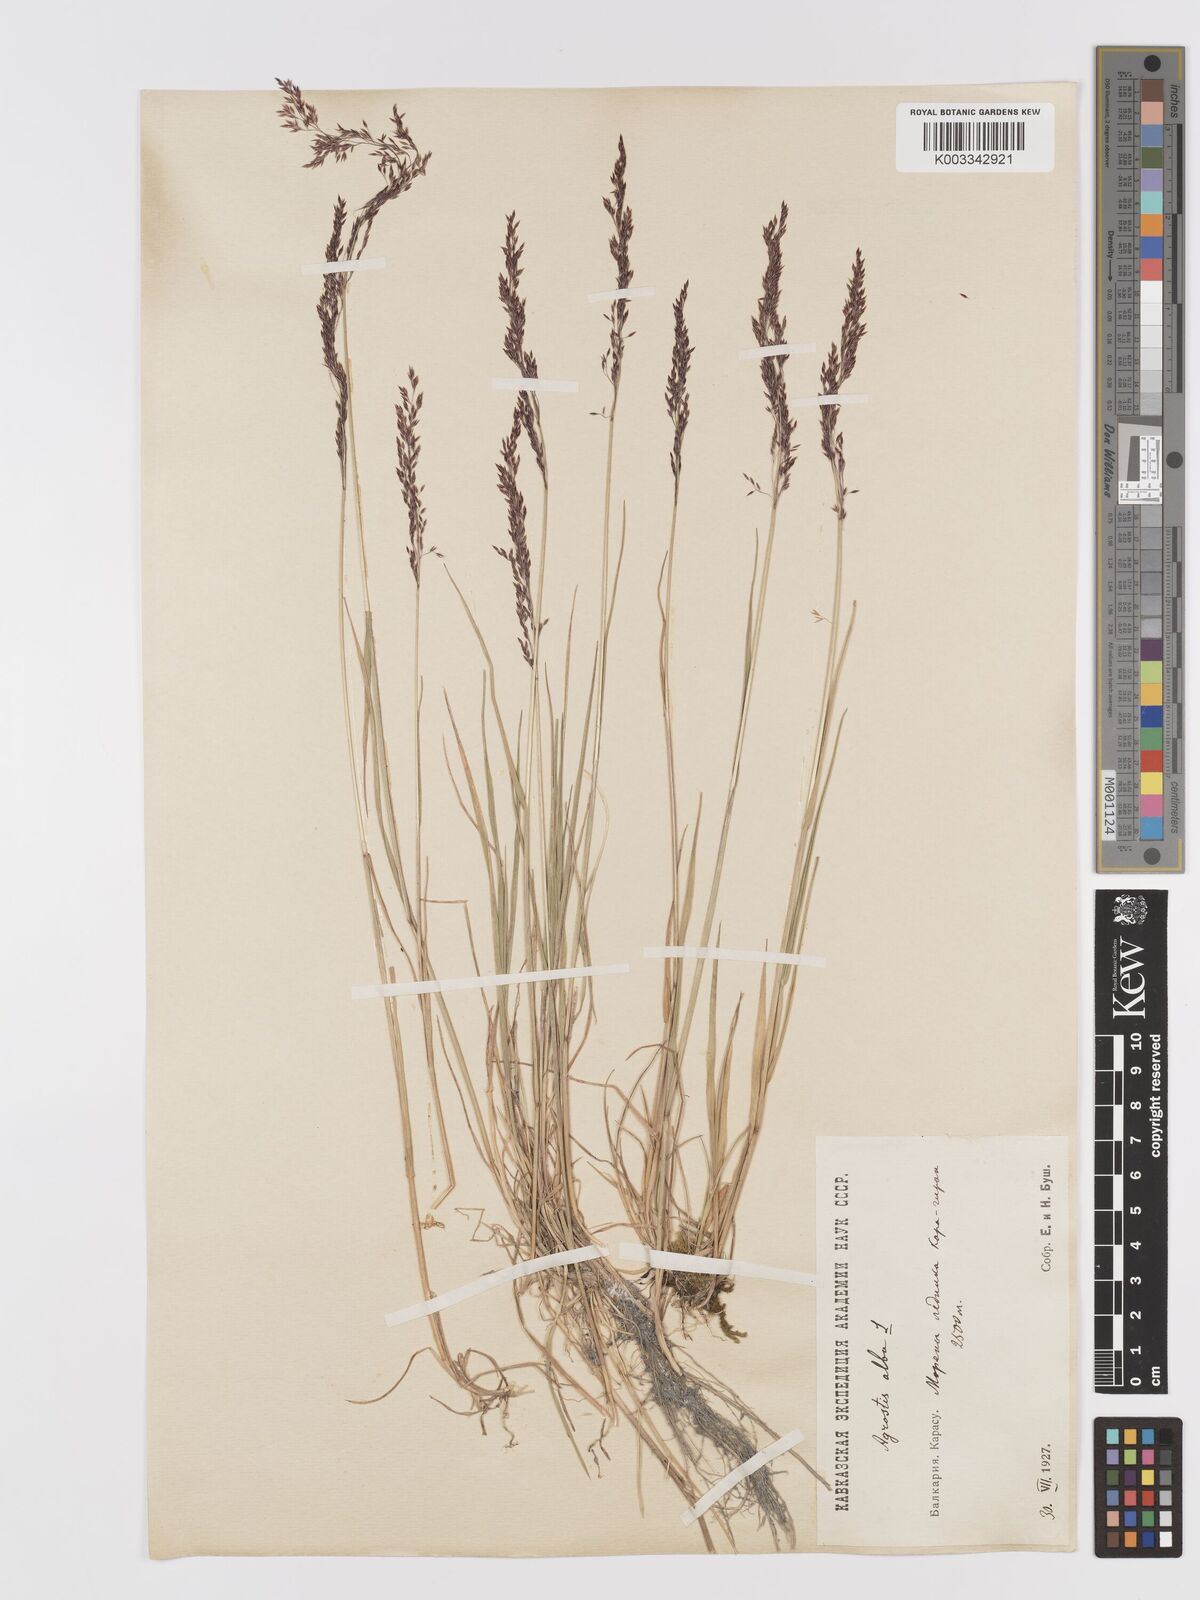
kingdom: Plantae
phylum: Tracheophyta
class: Liliopsida
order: Poales
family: Poaceae
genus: Agrostis
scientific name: Agrostis gigantea
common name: Black bent
